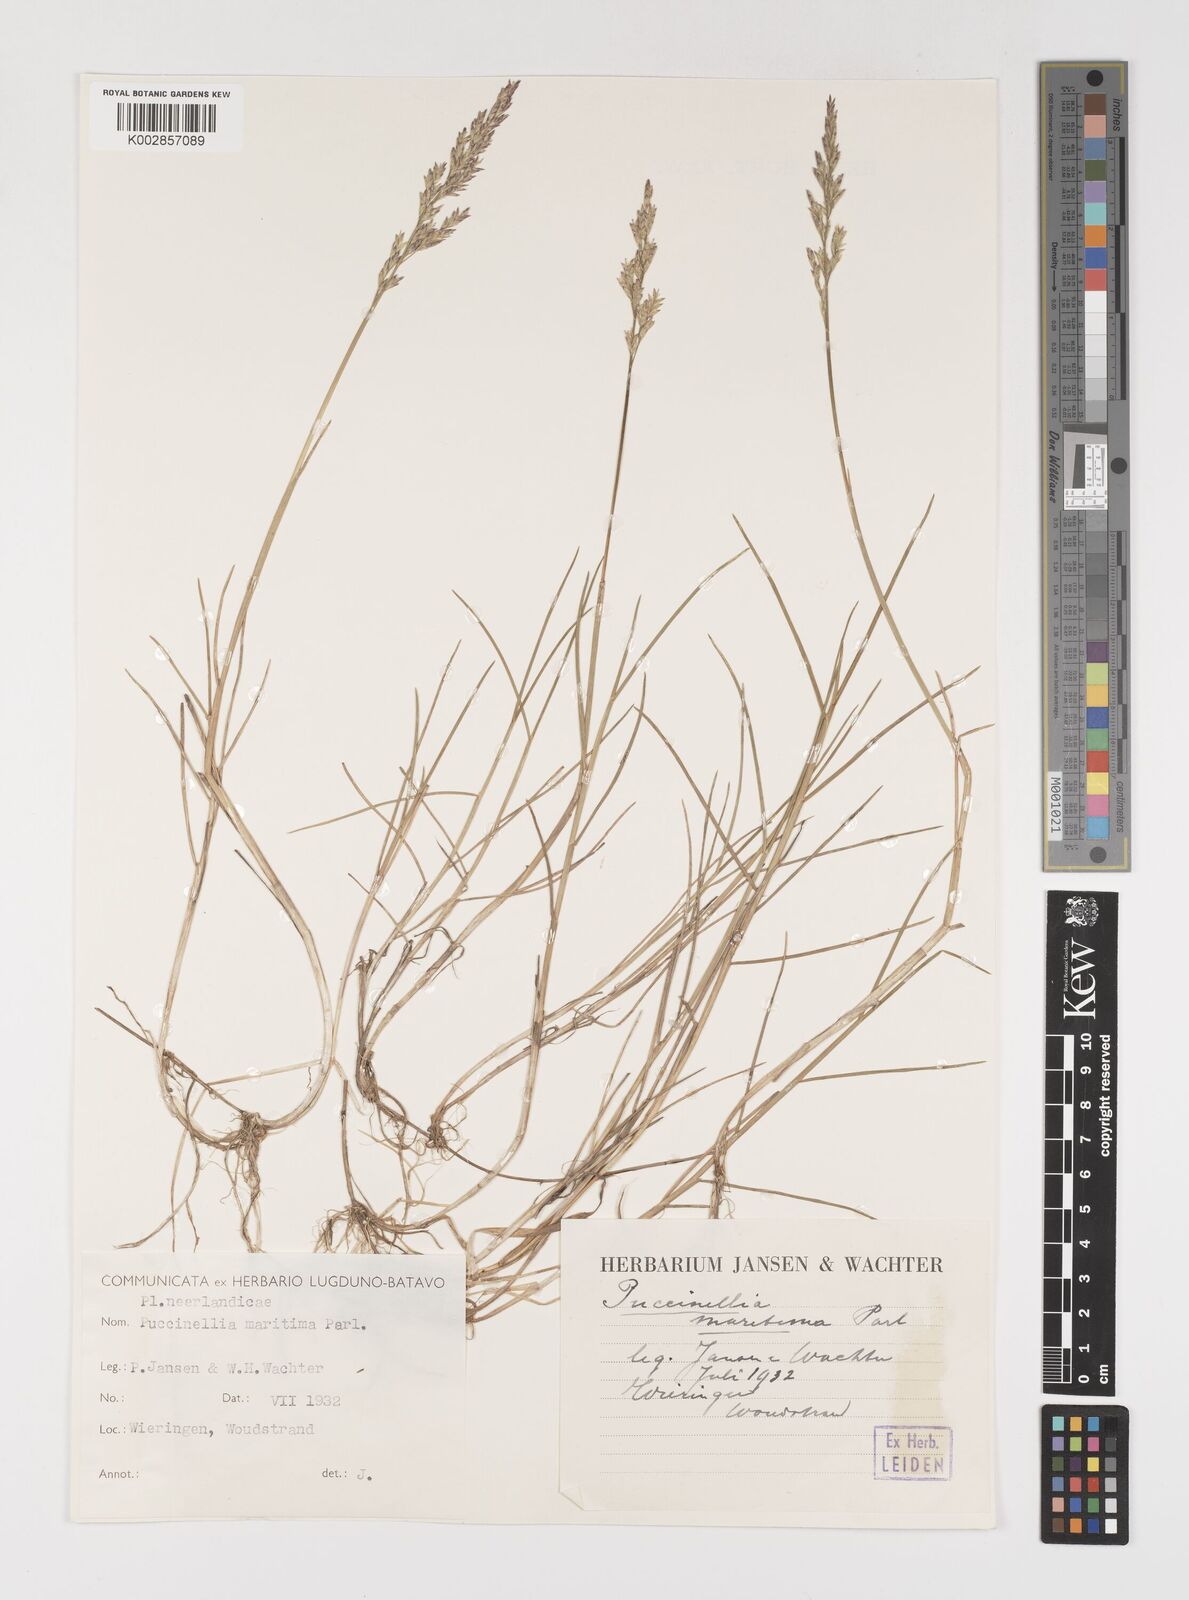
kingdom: Plantae
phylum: Tracheophyta
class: Liliopsida
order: Poales
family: Poaceae
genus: Puccinellia
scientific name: Puccinellia maritima
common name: Common saltmarsh grass
